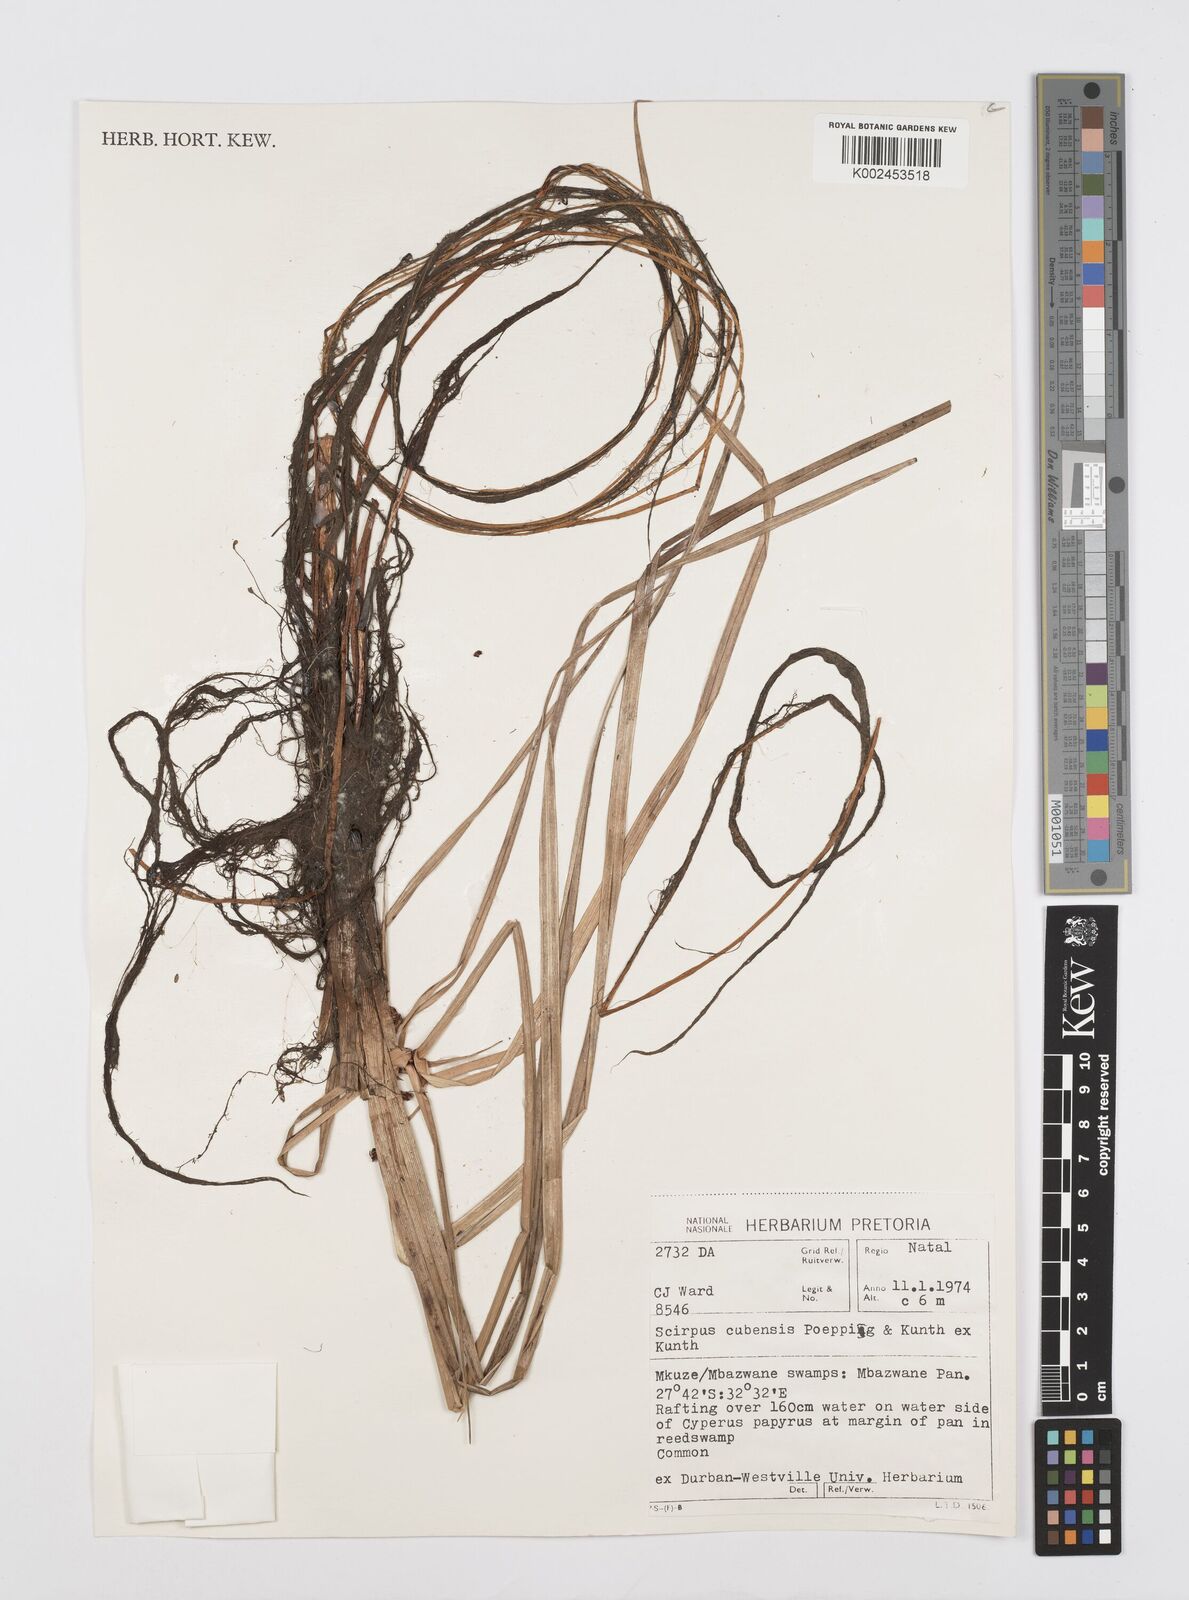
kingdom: Plantae
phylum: Tracheophyta
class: Liliopsida
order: Poales
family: Cyperaceae
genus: Cyperus
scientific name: Cyperus elegans
